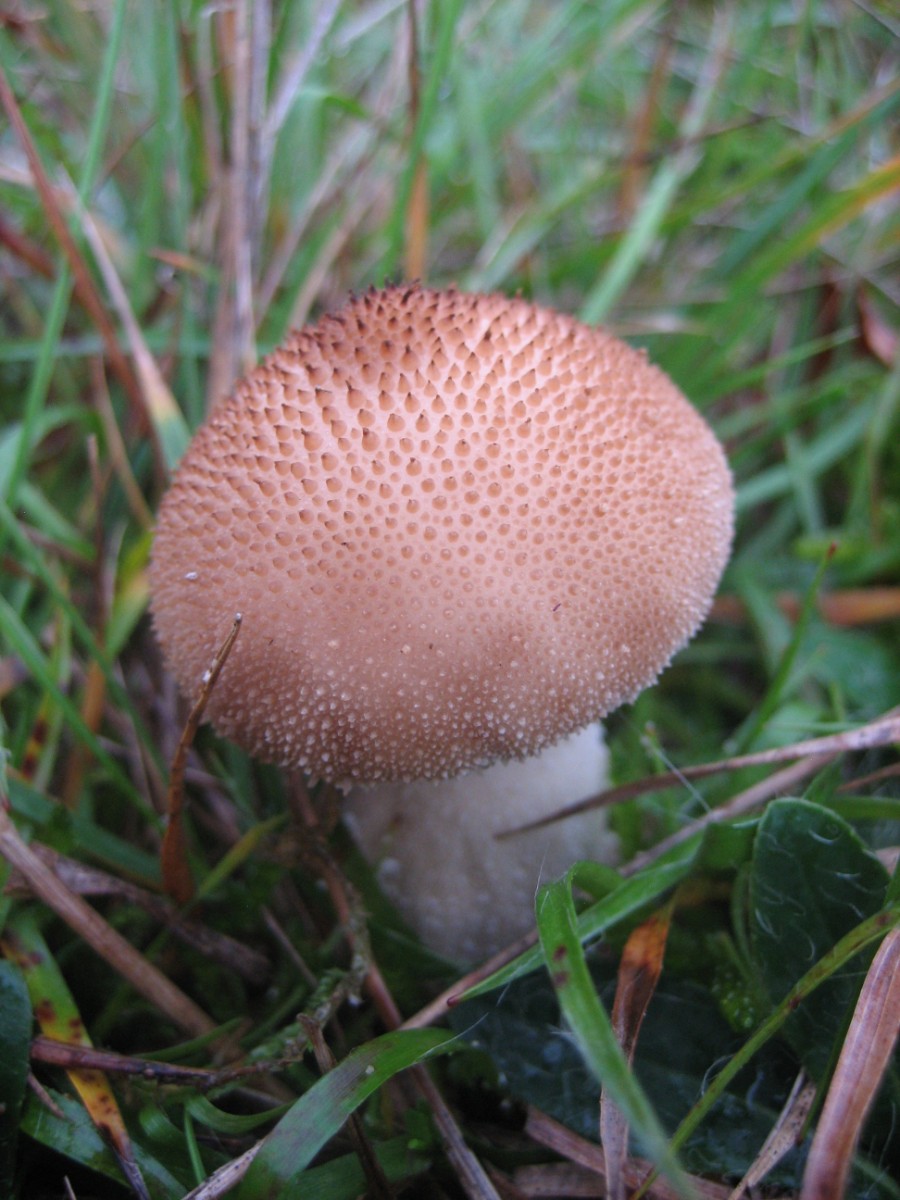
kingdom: Fungi
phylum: Basidiomycota
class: Agaricomycetes
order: Agaricales
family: Agaricaceae
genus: Lycoperdon
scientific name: Lycoperdon
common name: støvbold
